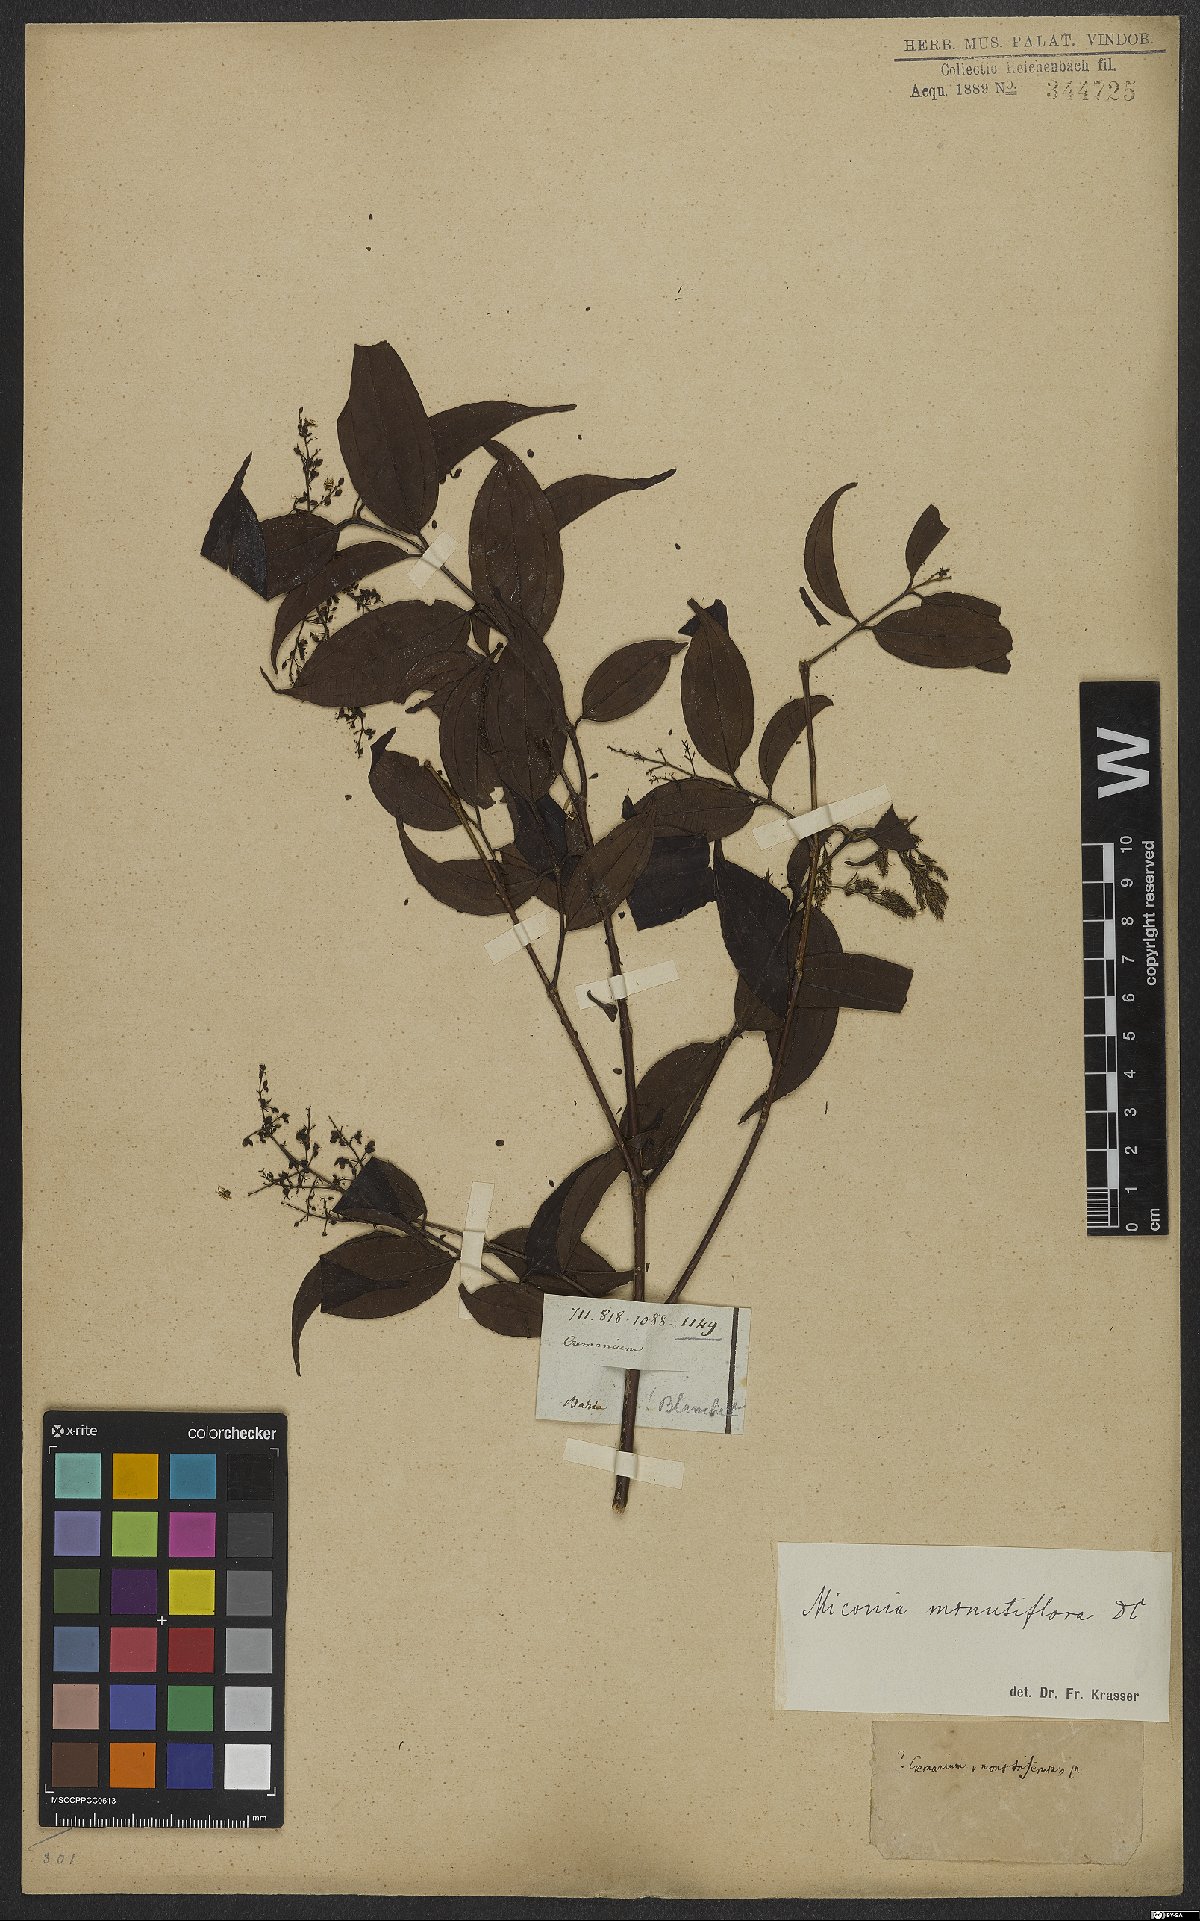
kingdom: Plantae
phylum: Tracheophyta
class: Magnoliopsida
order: Myrtales
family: Melastomataceae
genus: Miconia
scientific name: Miconia minutiflora
